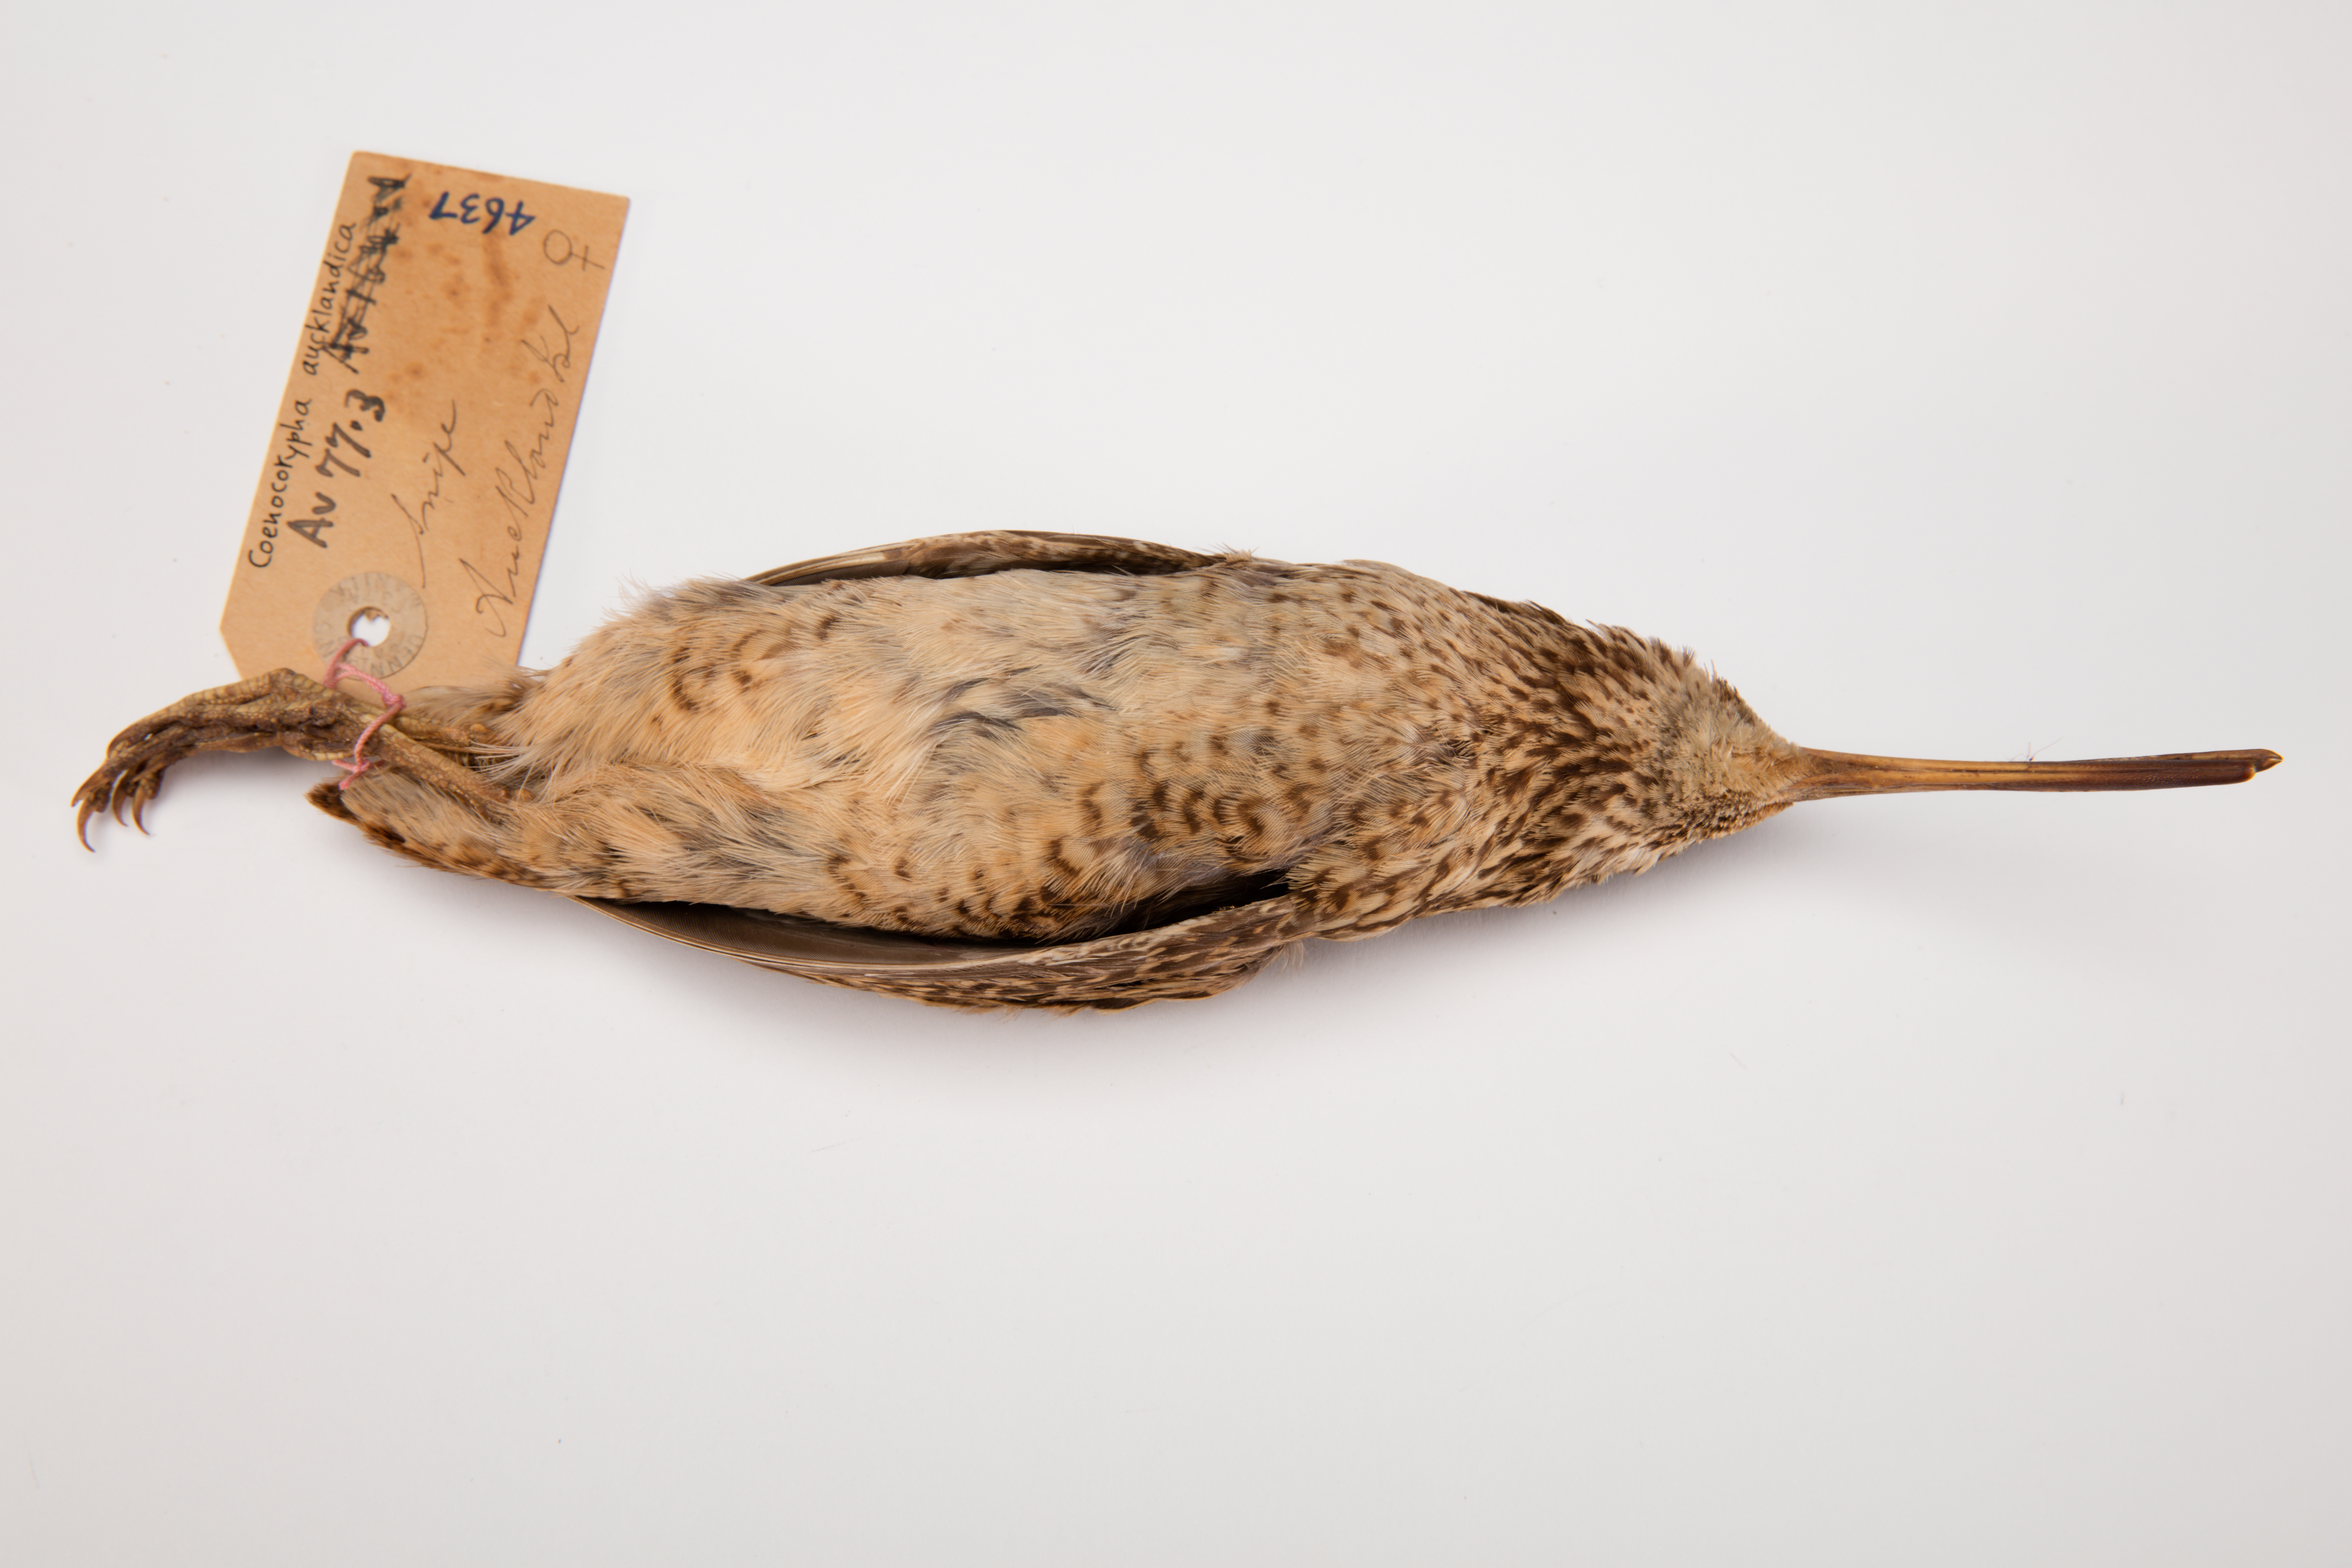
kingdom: Animalia
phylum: Chordata
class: Aves
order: Charadriiformes
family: Scolopacidae
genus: Coenocorypha
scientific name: Coenocorypha aucklandica
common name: Subantarctic snipe
